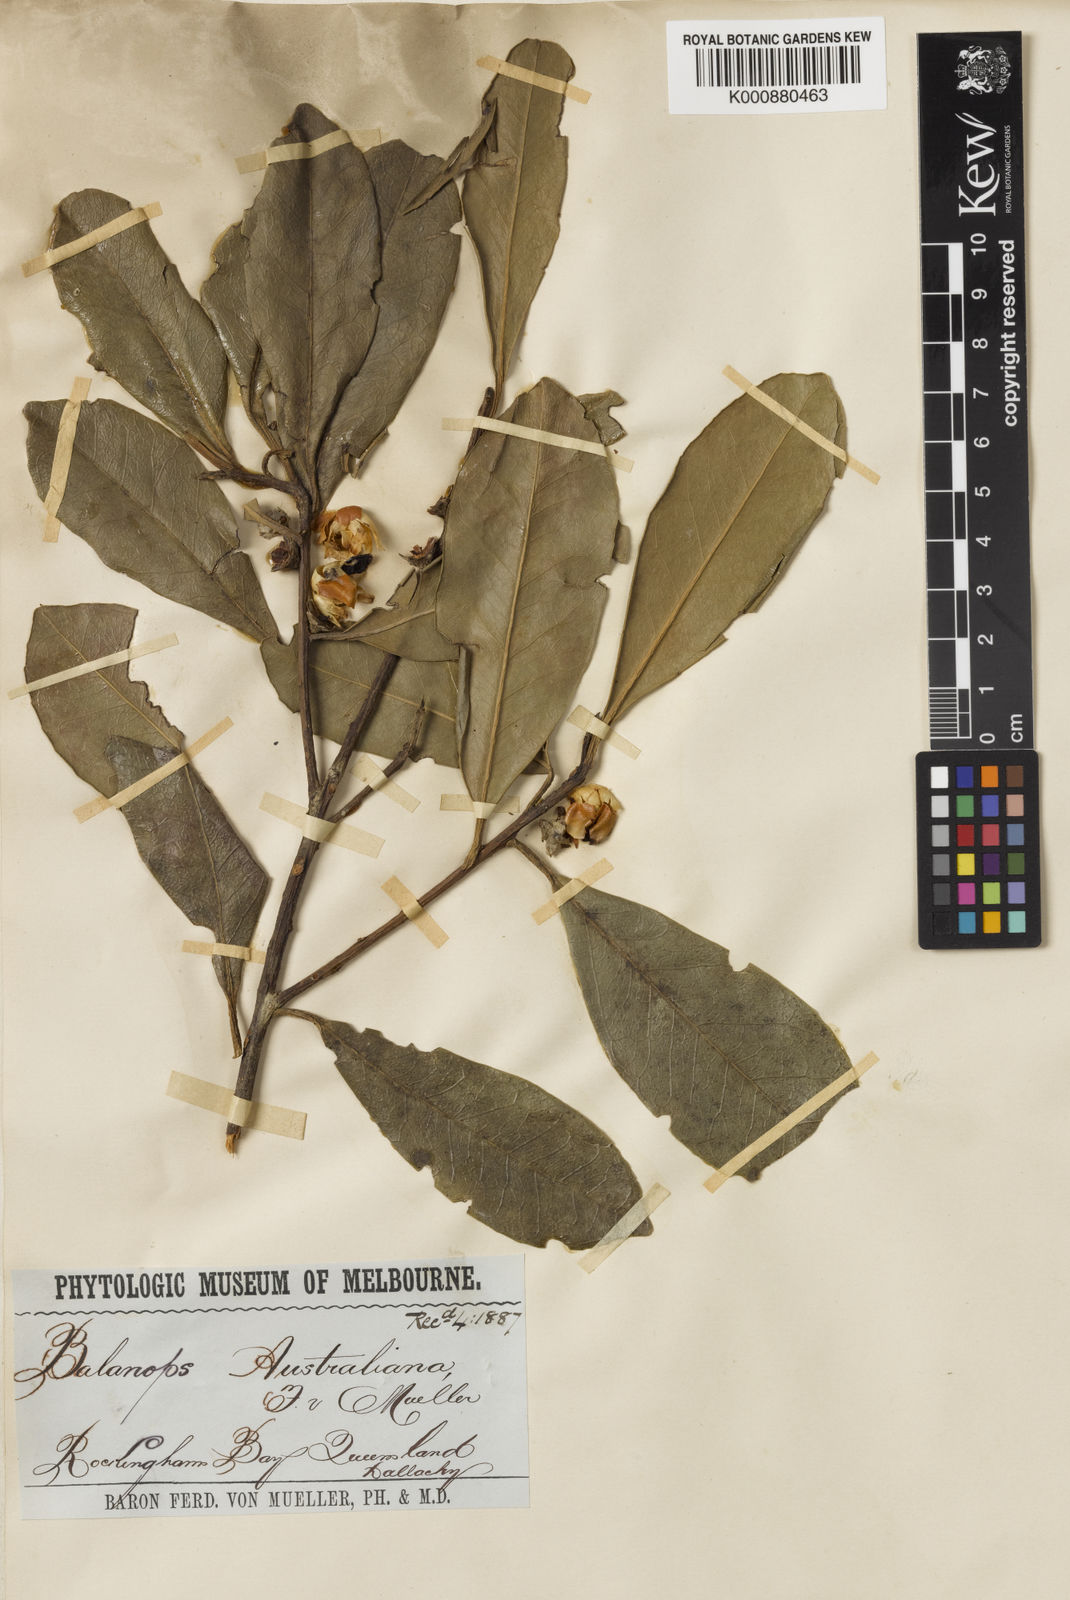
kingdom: Plantae
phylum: Tracheophyta
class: Magnoliopsida
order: Malpighiales
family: Balanopaceae
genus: Balanops
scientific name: Balanops australiana
